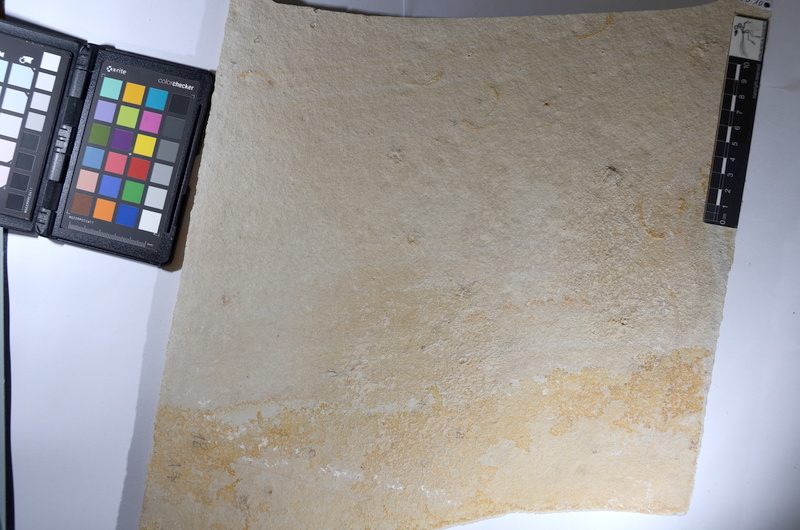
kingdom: Animalia
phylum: Chordata
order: Salmoniformes
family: Orthogonikleithridae
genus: Leptolepides
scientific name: Leptolepides sprattiformis
